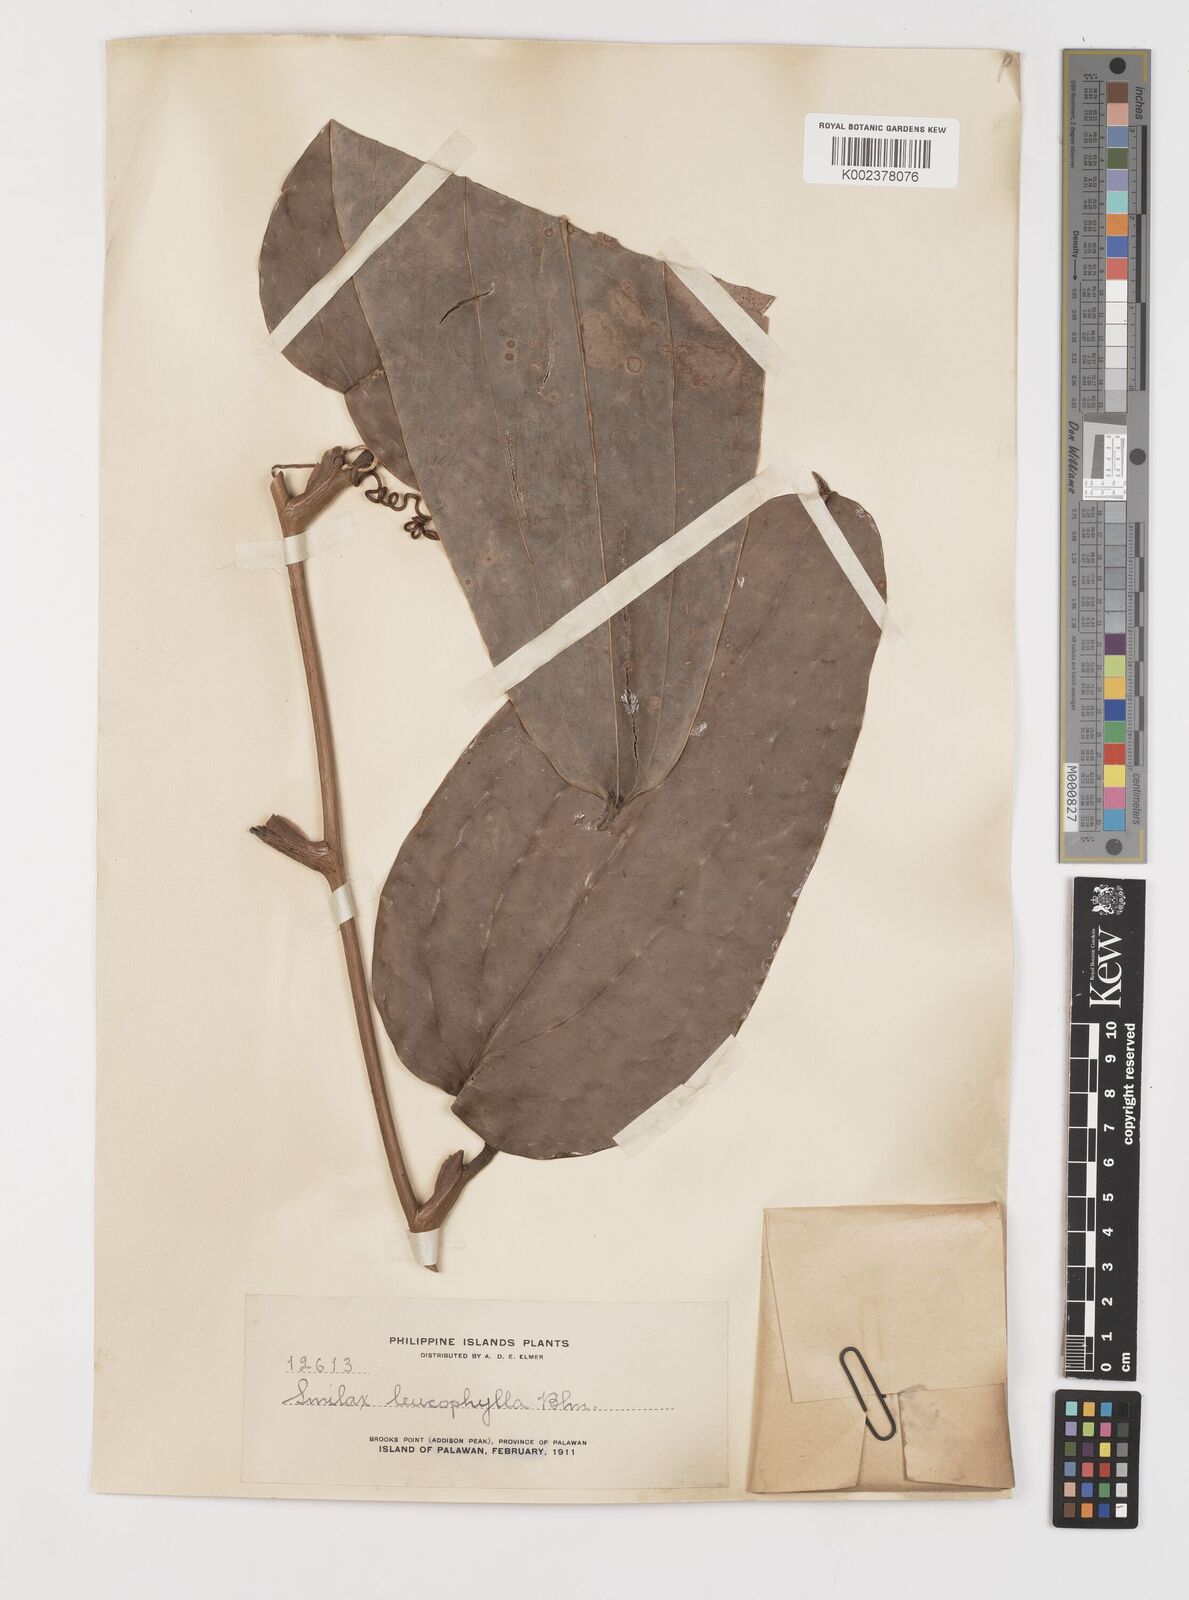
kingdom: Plantae
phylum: Tracheophyta
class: Liliopsida
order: Liliales
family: Smilacaceae
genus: Smilax
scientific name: Smilax leucophylla
